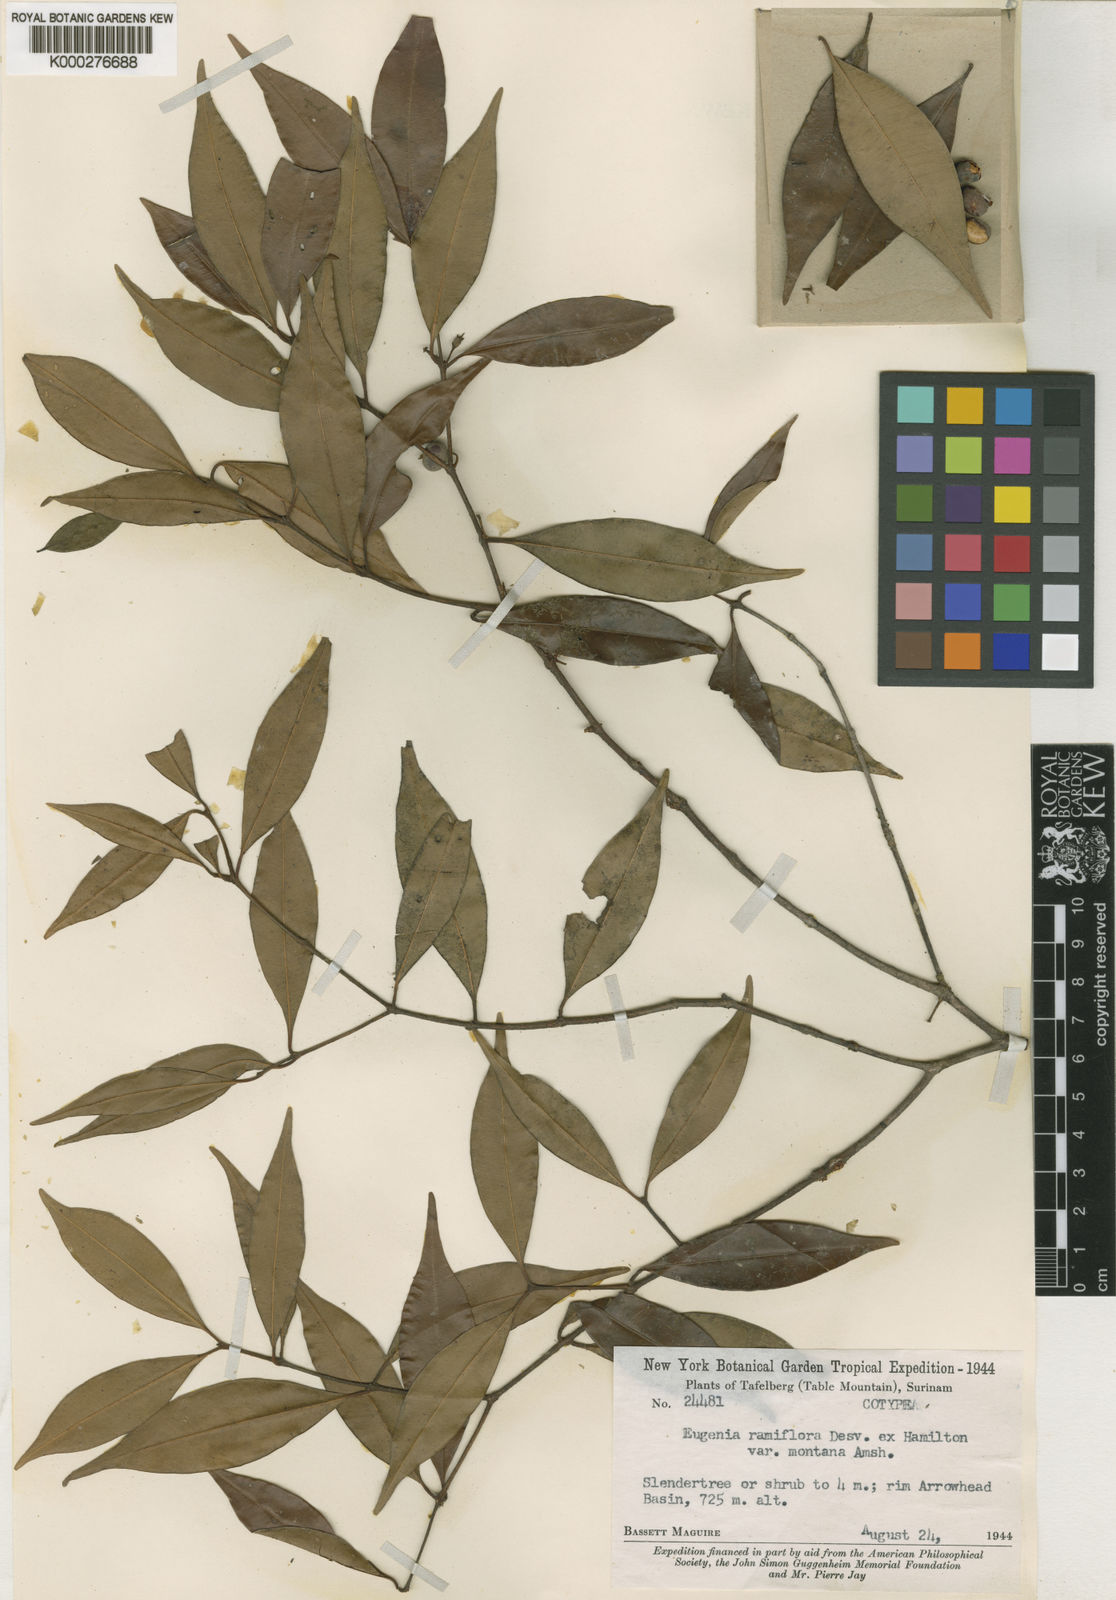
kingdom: Plantae
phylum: Tracheophyta
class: Magnoliopsida
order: Myrtales
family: Myrtaceae
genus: Eugenia
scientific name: Eugenia ferreiraeana
